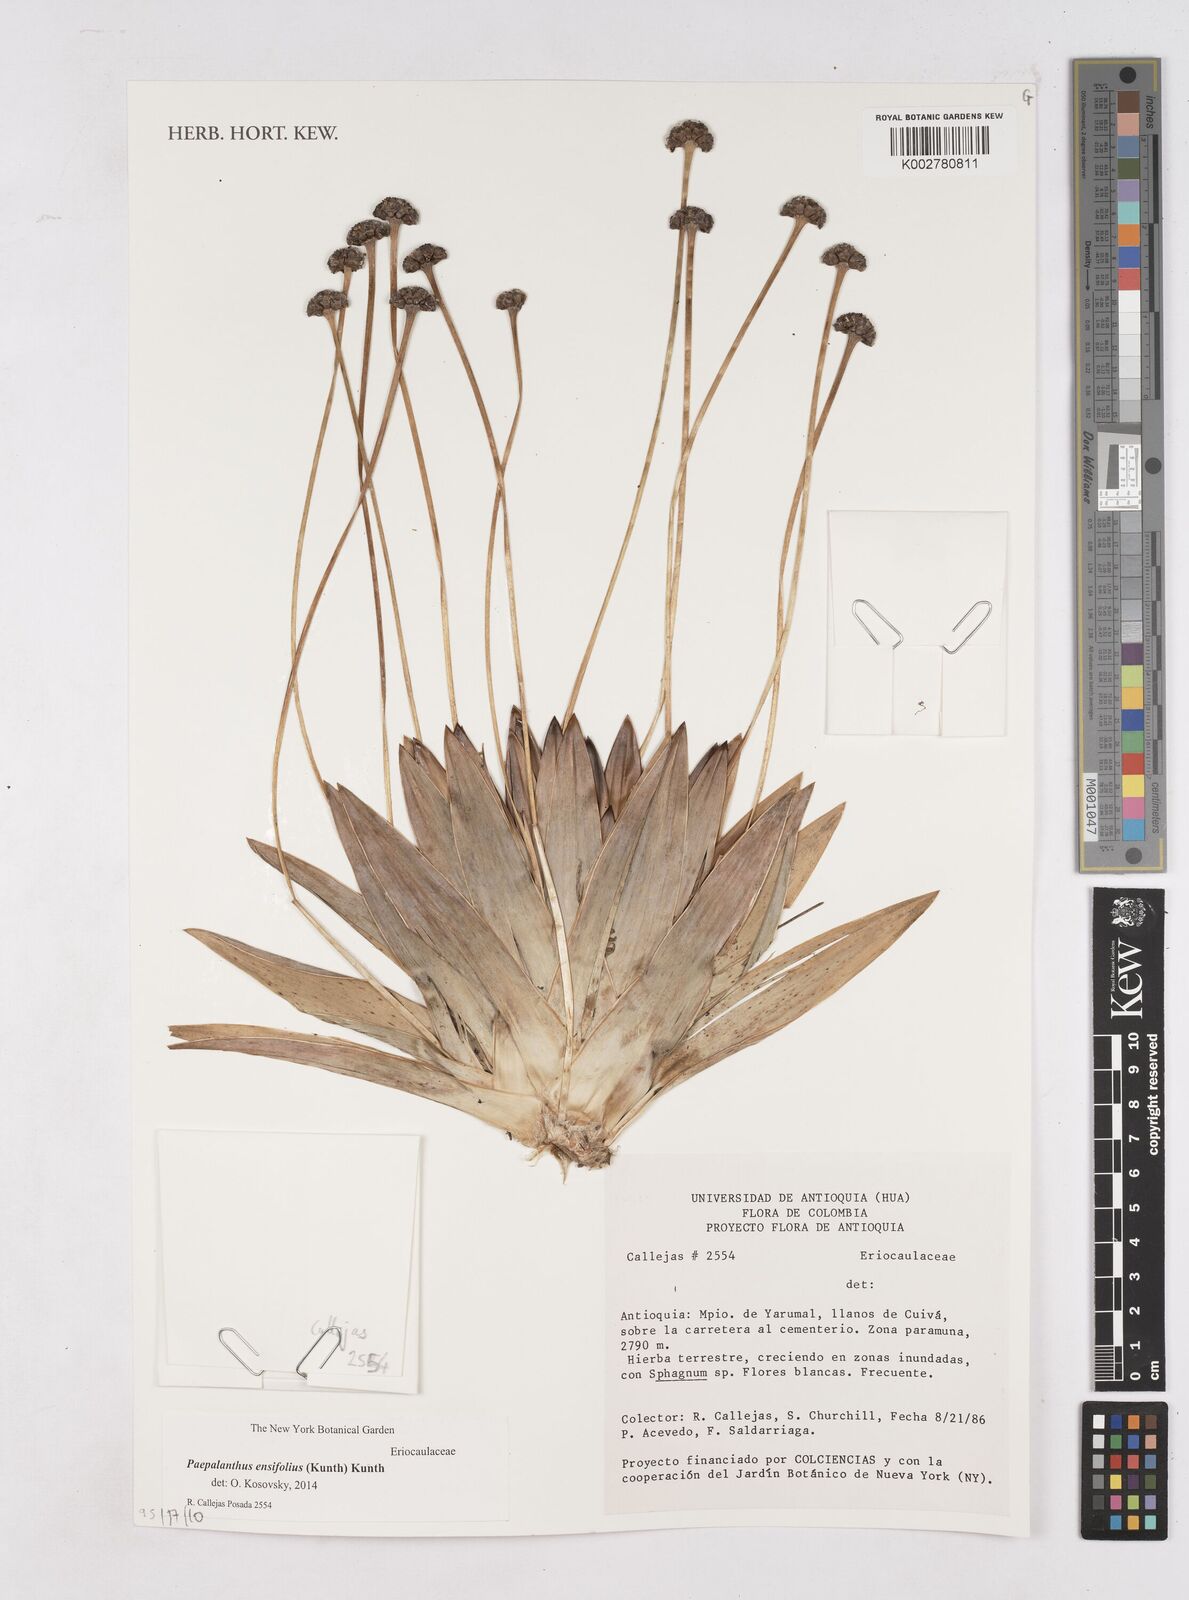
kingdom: Plantae
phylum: Tracheophyta
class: Liliopsida
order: Poales
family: Eriocaulaceae
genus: Paepalanthus
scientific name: Paepalanthus ensifolius
